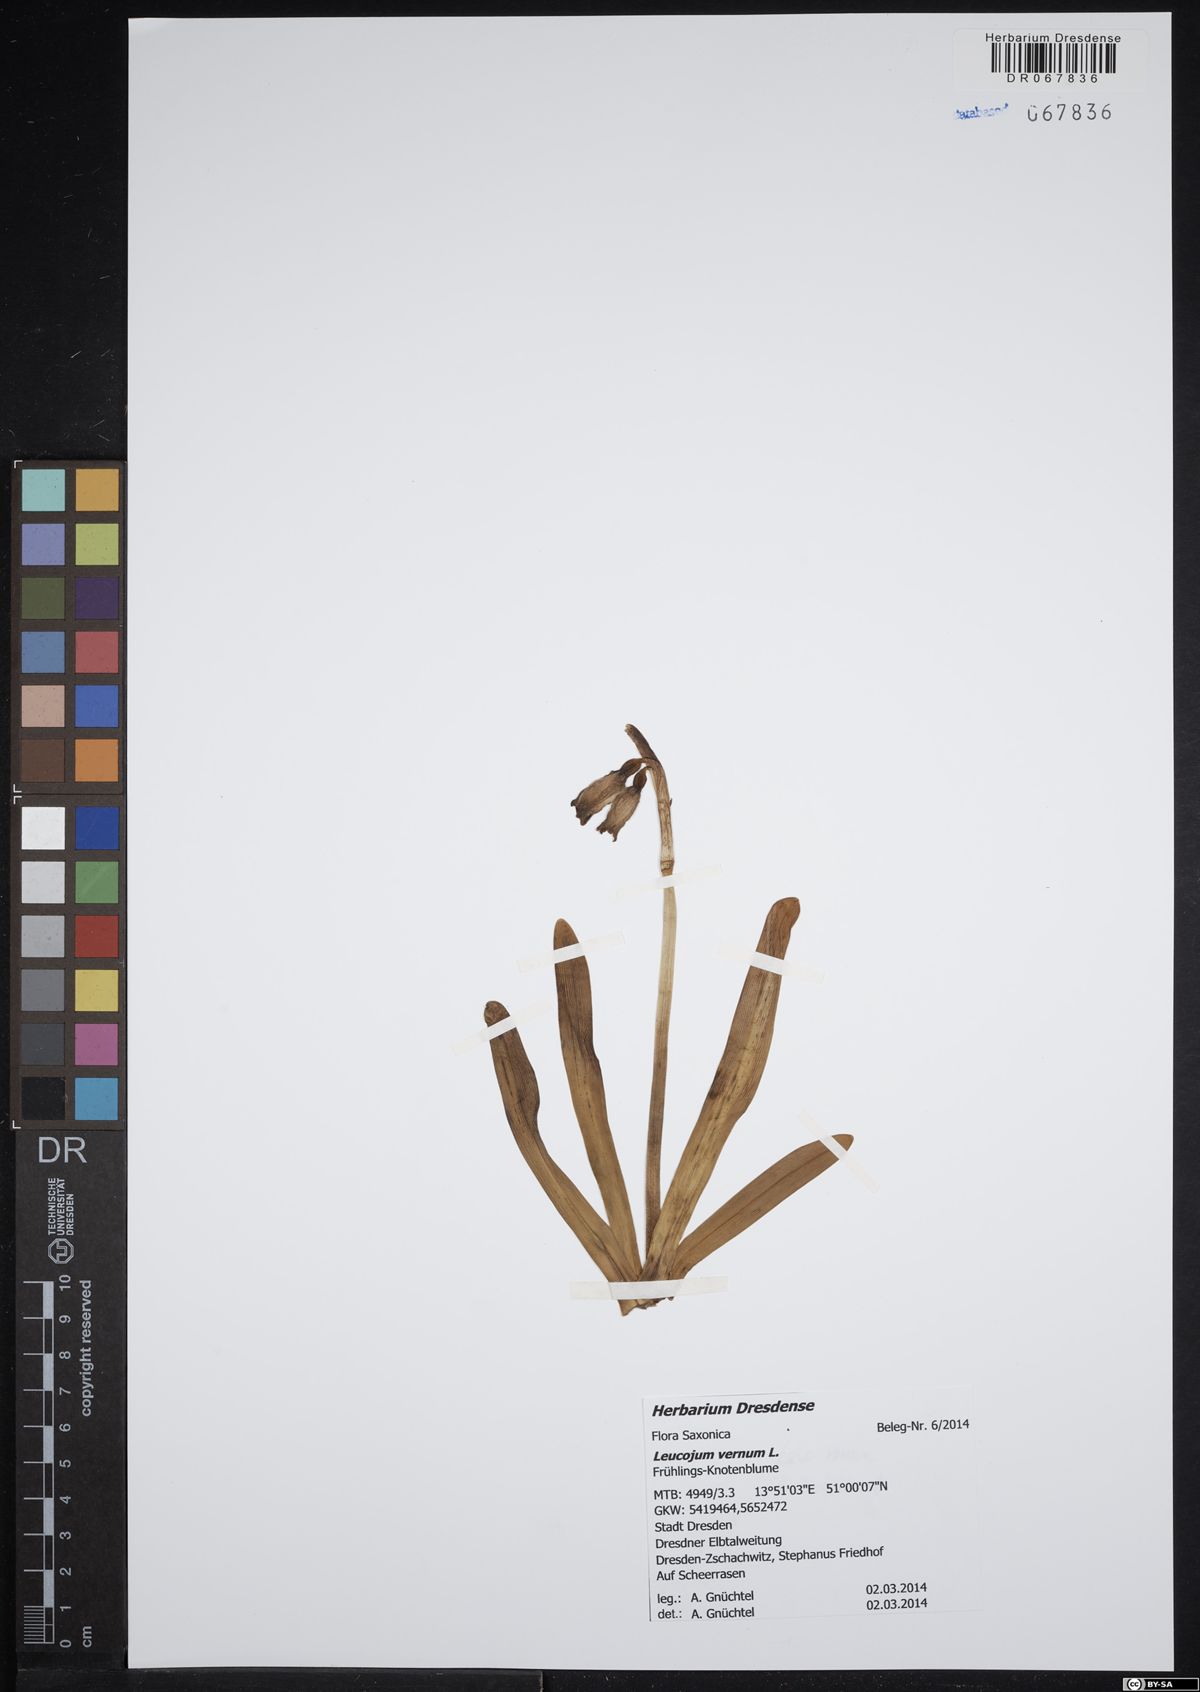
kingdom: Plantae
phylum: Tracheophyta
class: Liliopsida
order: Asparagales
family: Amaryllidaceae
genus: Leucojum
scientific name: Leucojum vernum
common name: Spring snowflake
